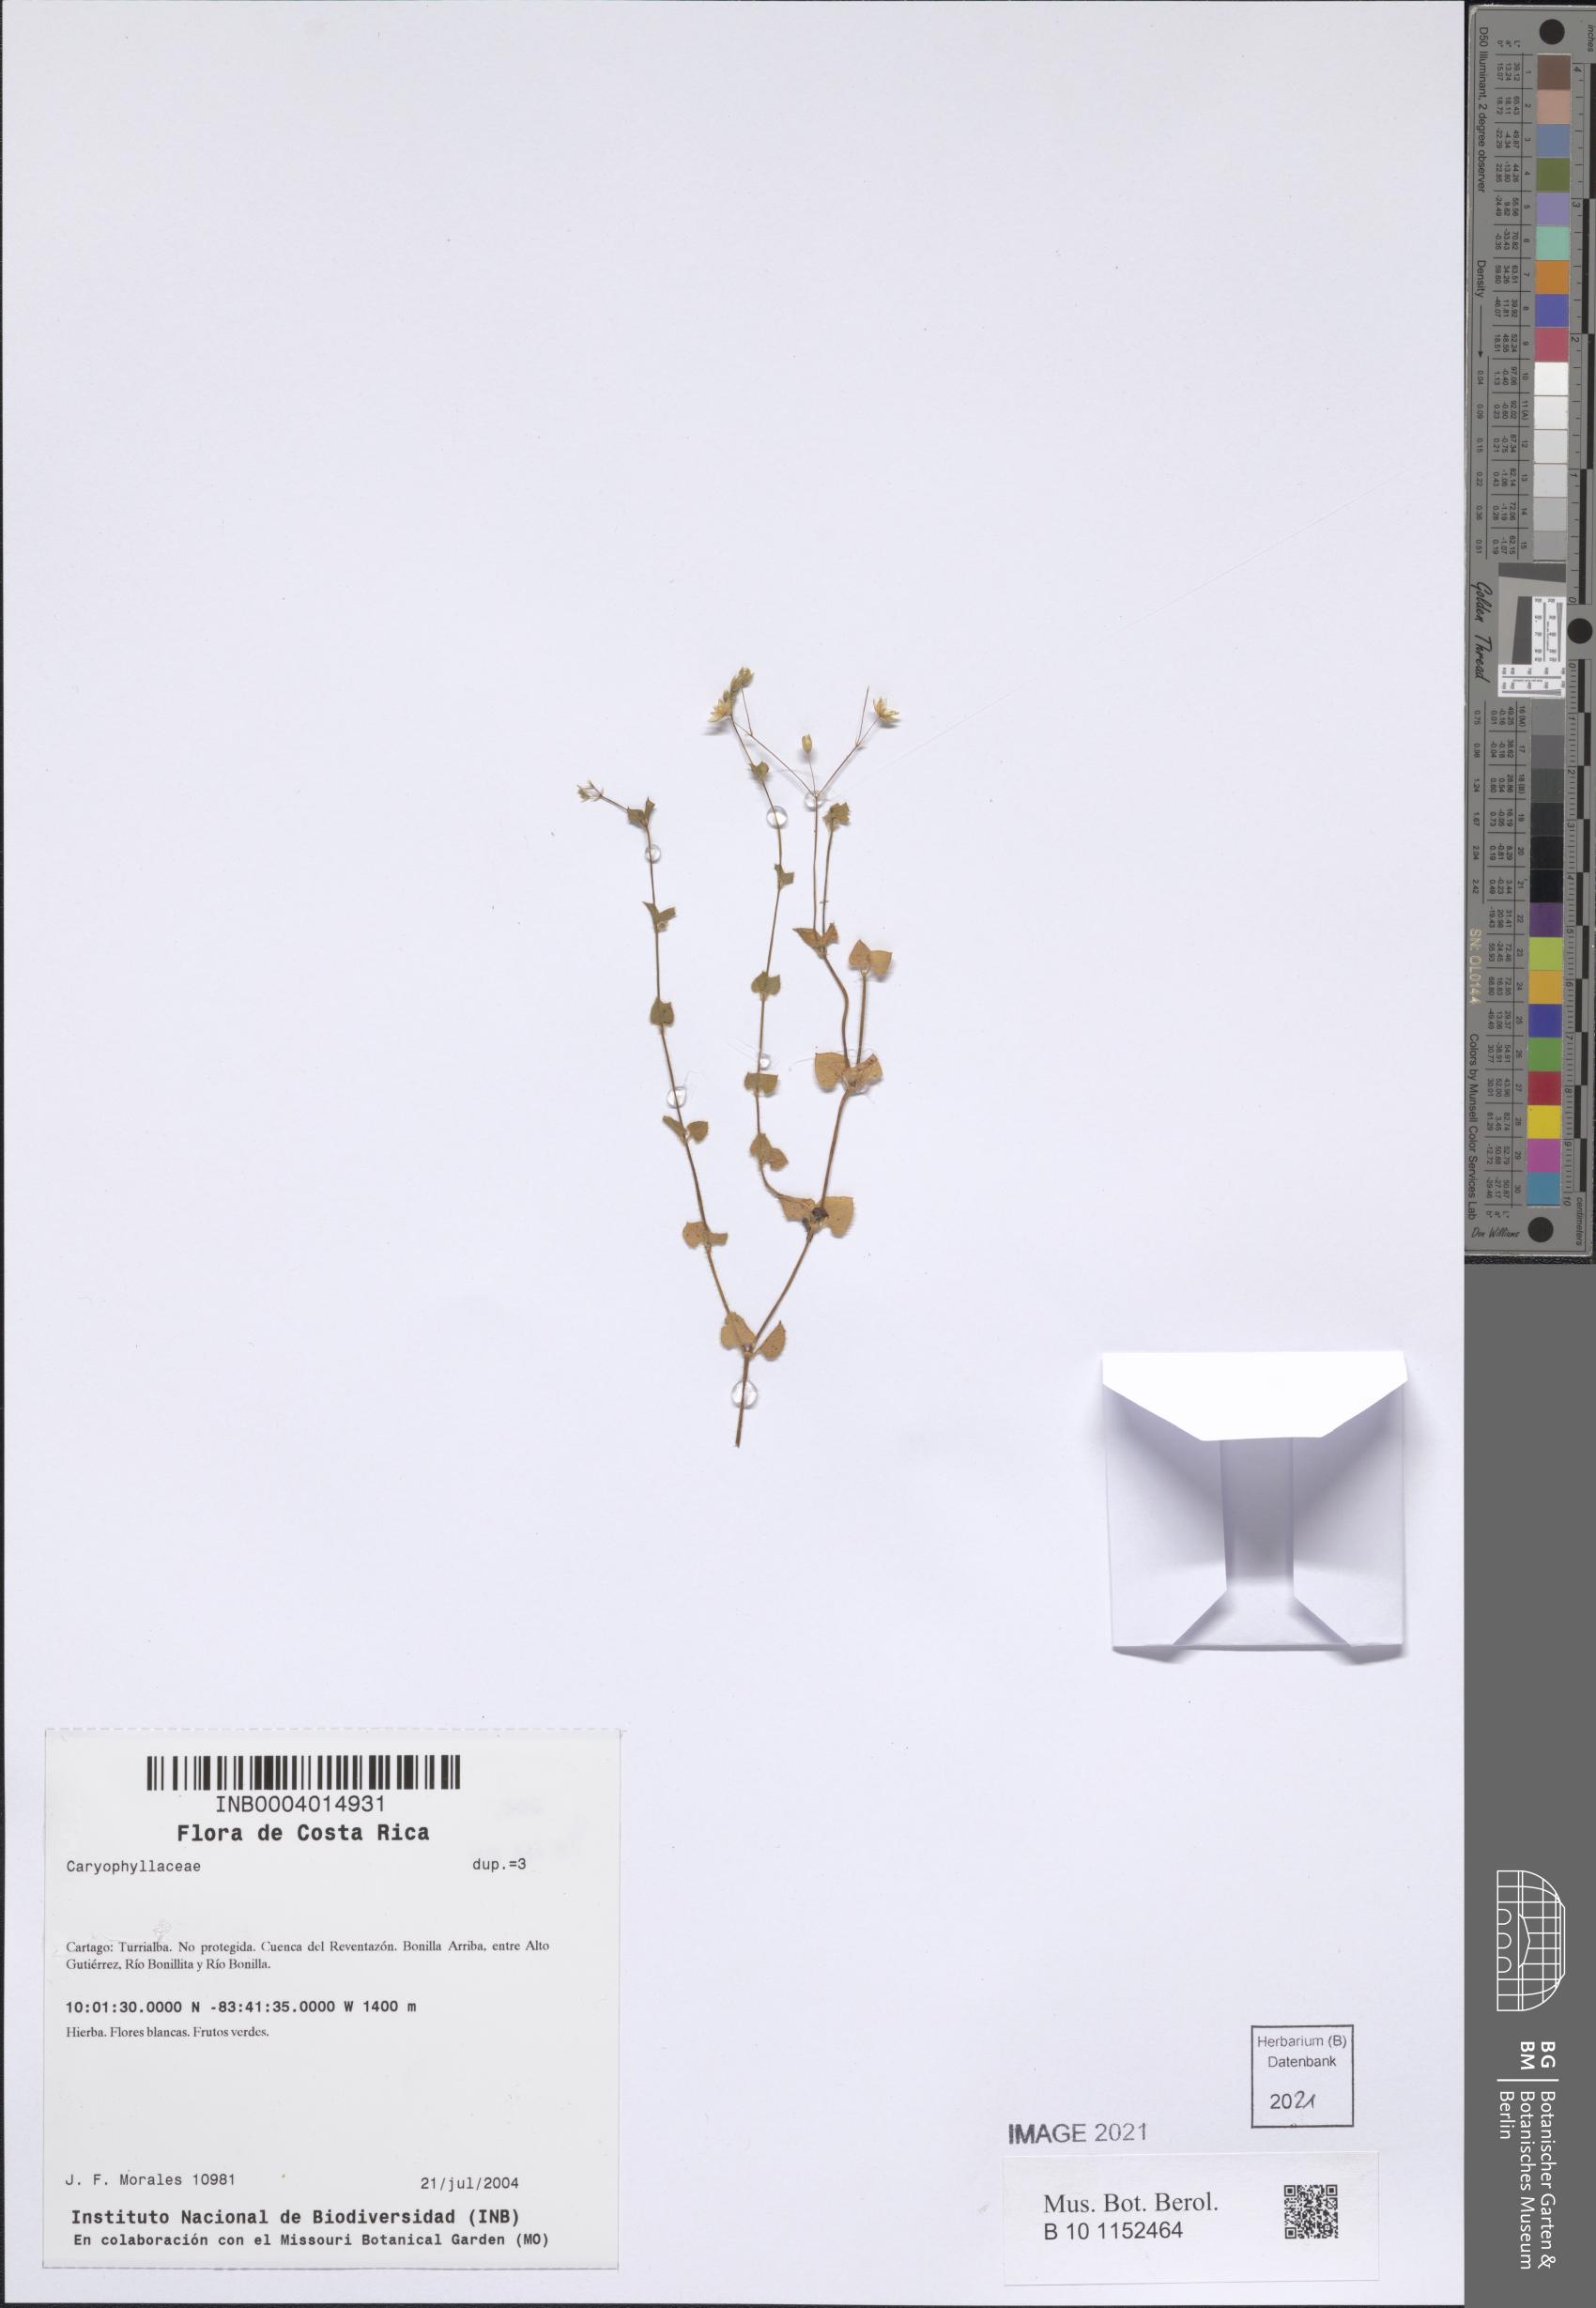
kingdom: Plantae
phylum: Tracheophyta
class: Magnoliopsida
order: Caryophyllales
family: Caryophyllaceae
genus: Drymaria
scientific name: Drymaria villosa
